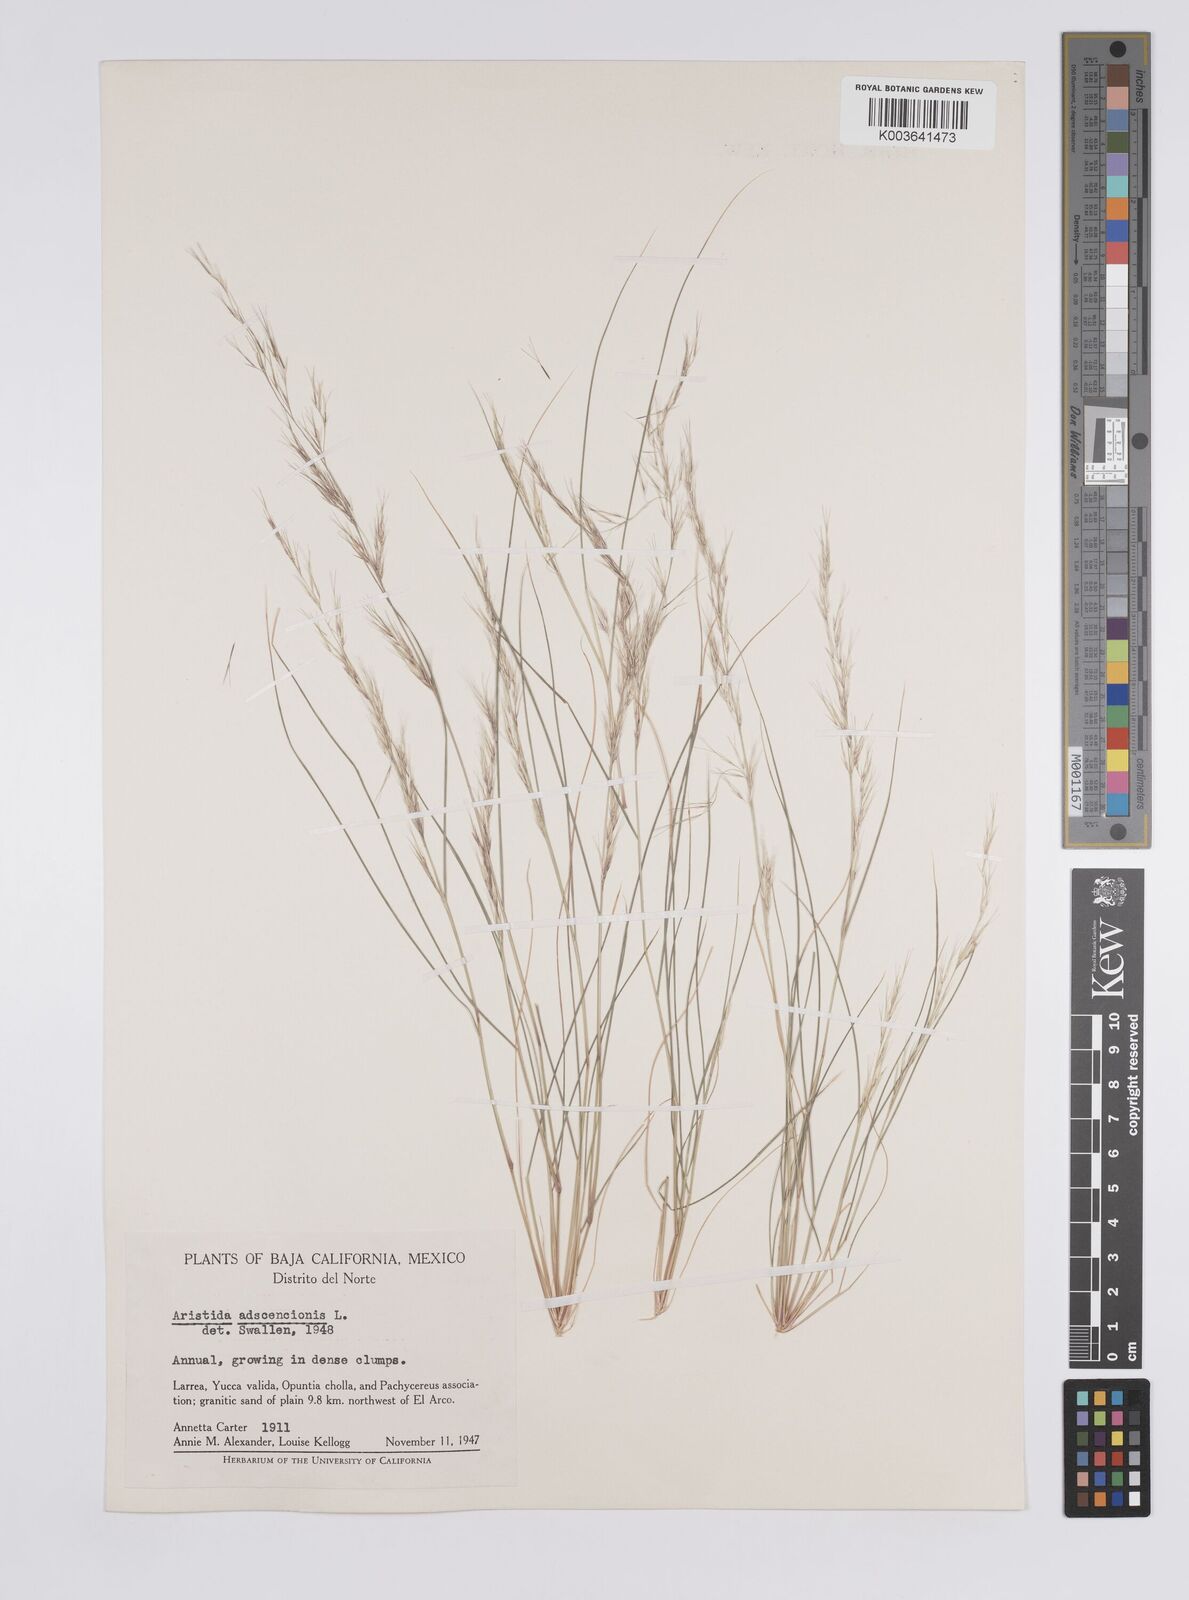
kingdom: Plantae
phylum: Tracheophyta
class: Liliopsida
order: Poales
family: Poaceae
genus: Aristida
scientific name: Aristida adscensionis
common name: Sixweeks threeawn
